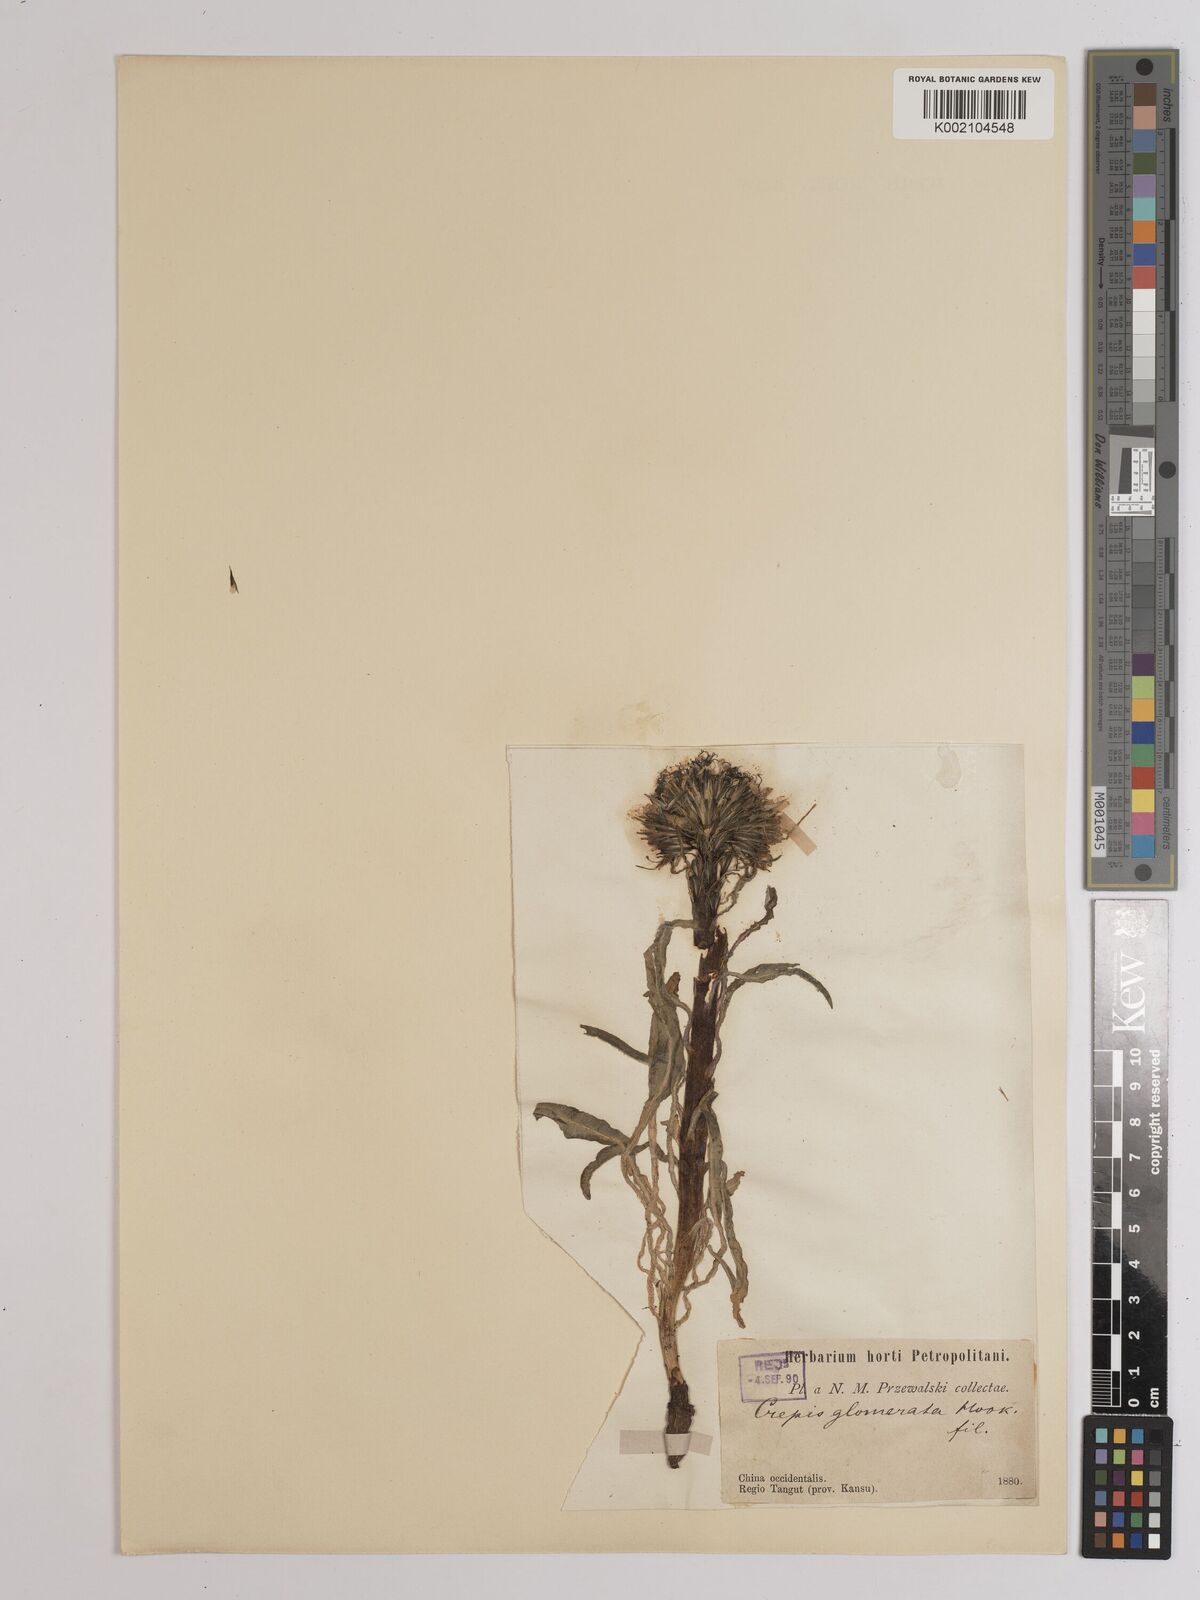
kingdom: Plantae
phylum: Tracheophyta
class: Magnoliopsida
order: Asterales
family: Asteraceae
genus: Soroseris
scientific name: Soroseris hookeriana
